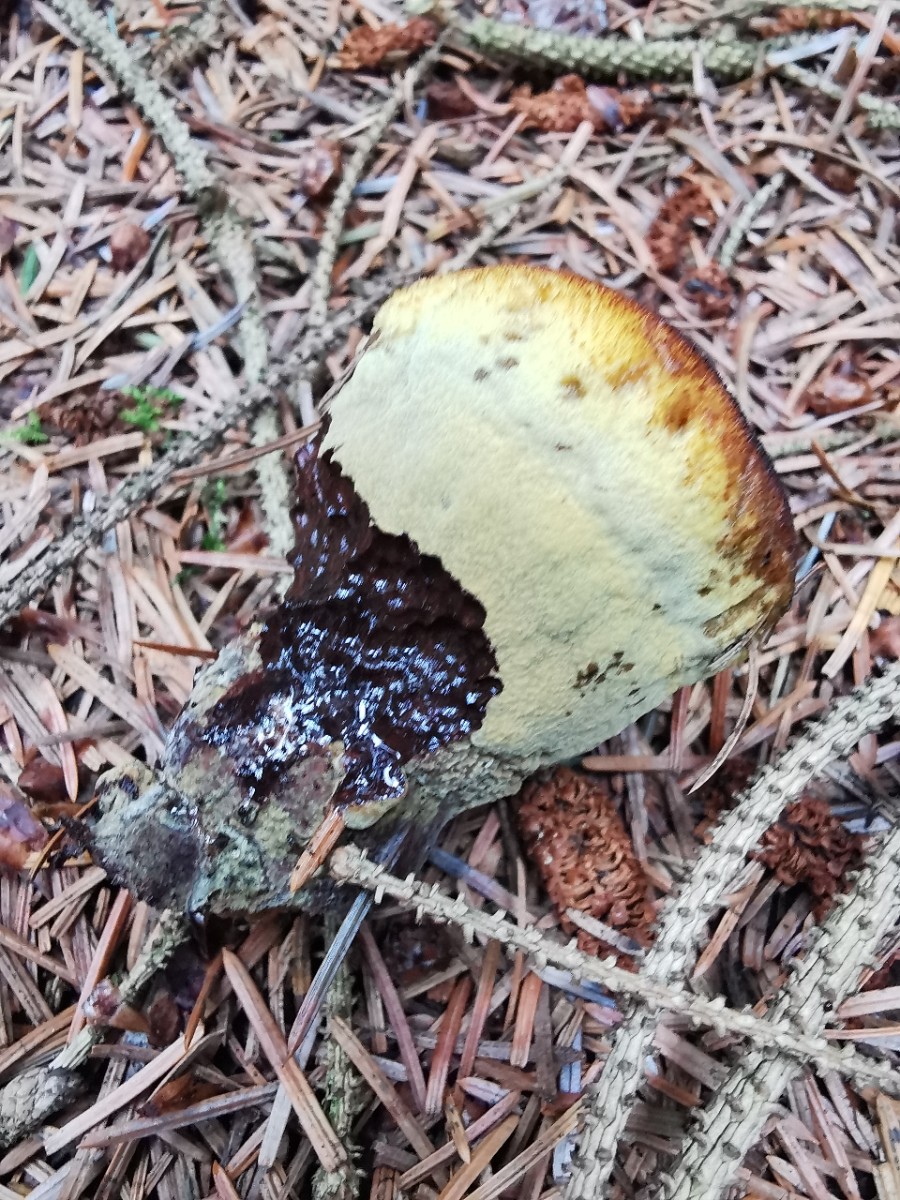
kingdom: Fungi
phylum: Basidiomycota
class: Agaricomycetes
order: Polyporales
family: Laetiporaceae
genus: Phaeolus
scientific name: Phaeolus schweinitzii
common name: brunporesvamp
